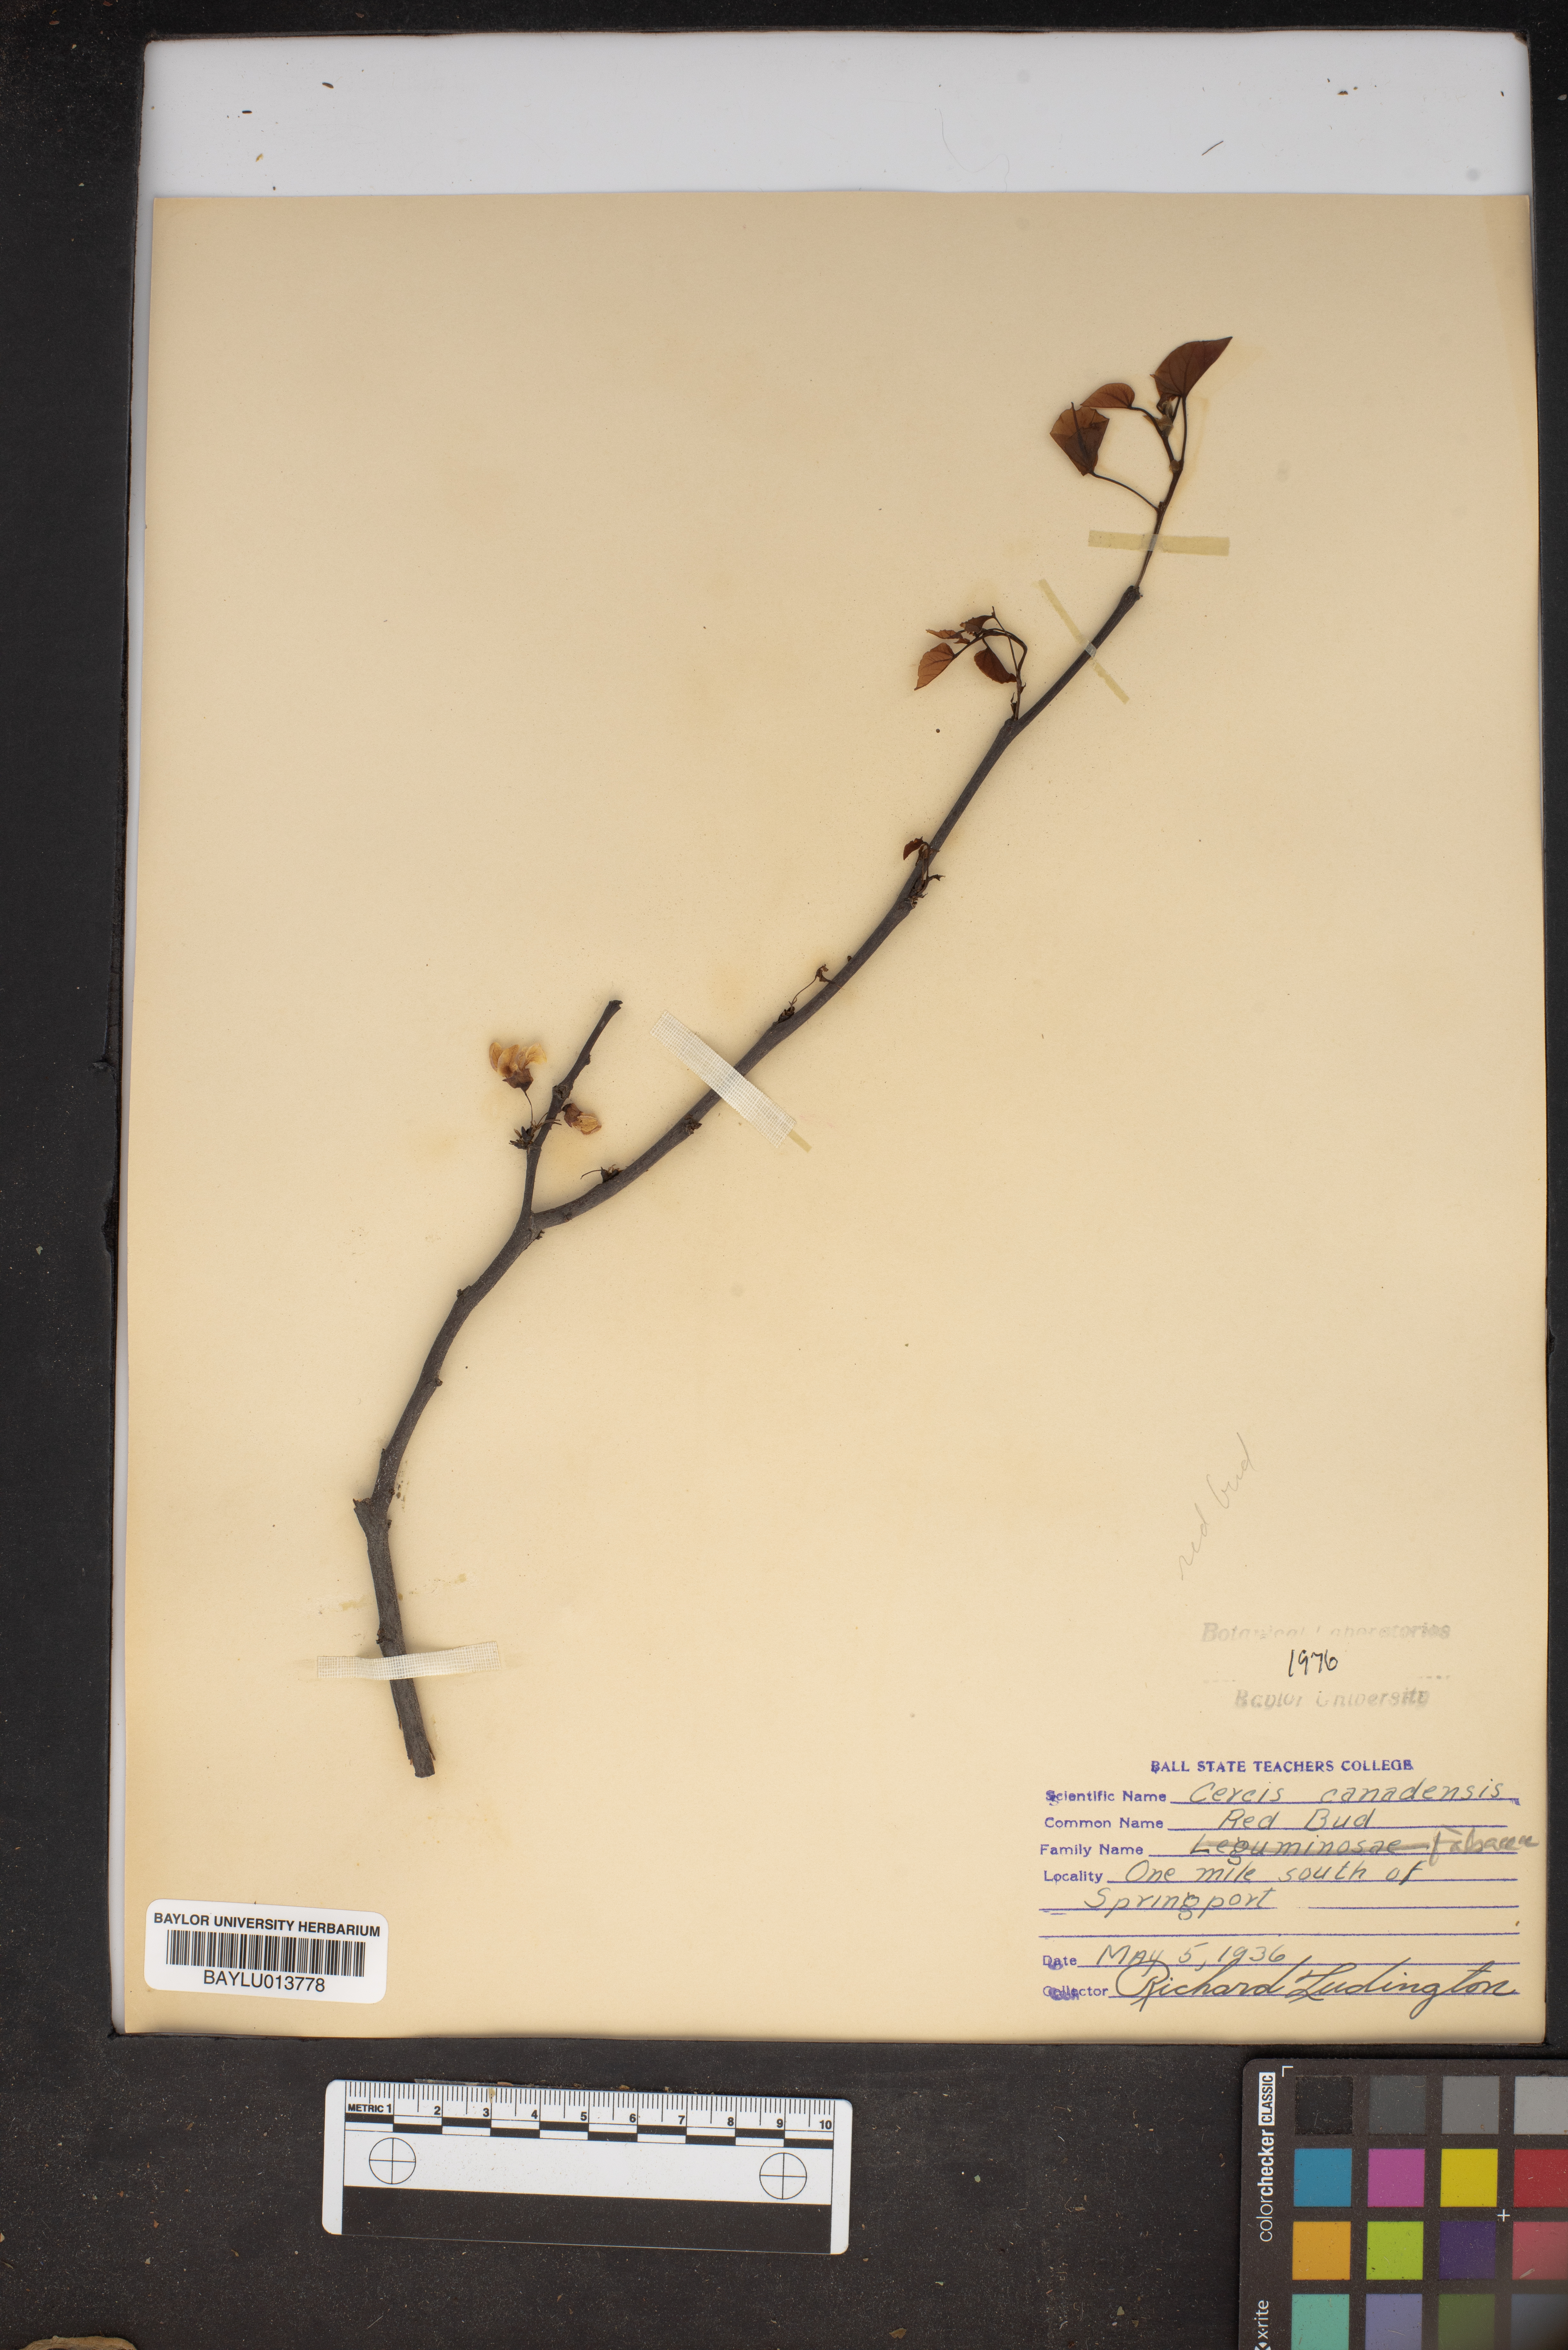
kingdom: Plantae
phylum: Tracheophyta
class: Magnoliopsida
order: Fabales
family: Fabaceae
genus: Cercis
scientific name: Cercis canadensis
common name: Eastern redbud
